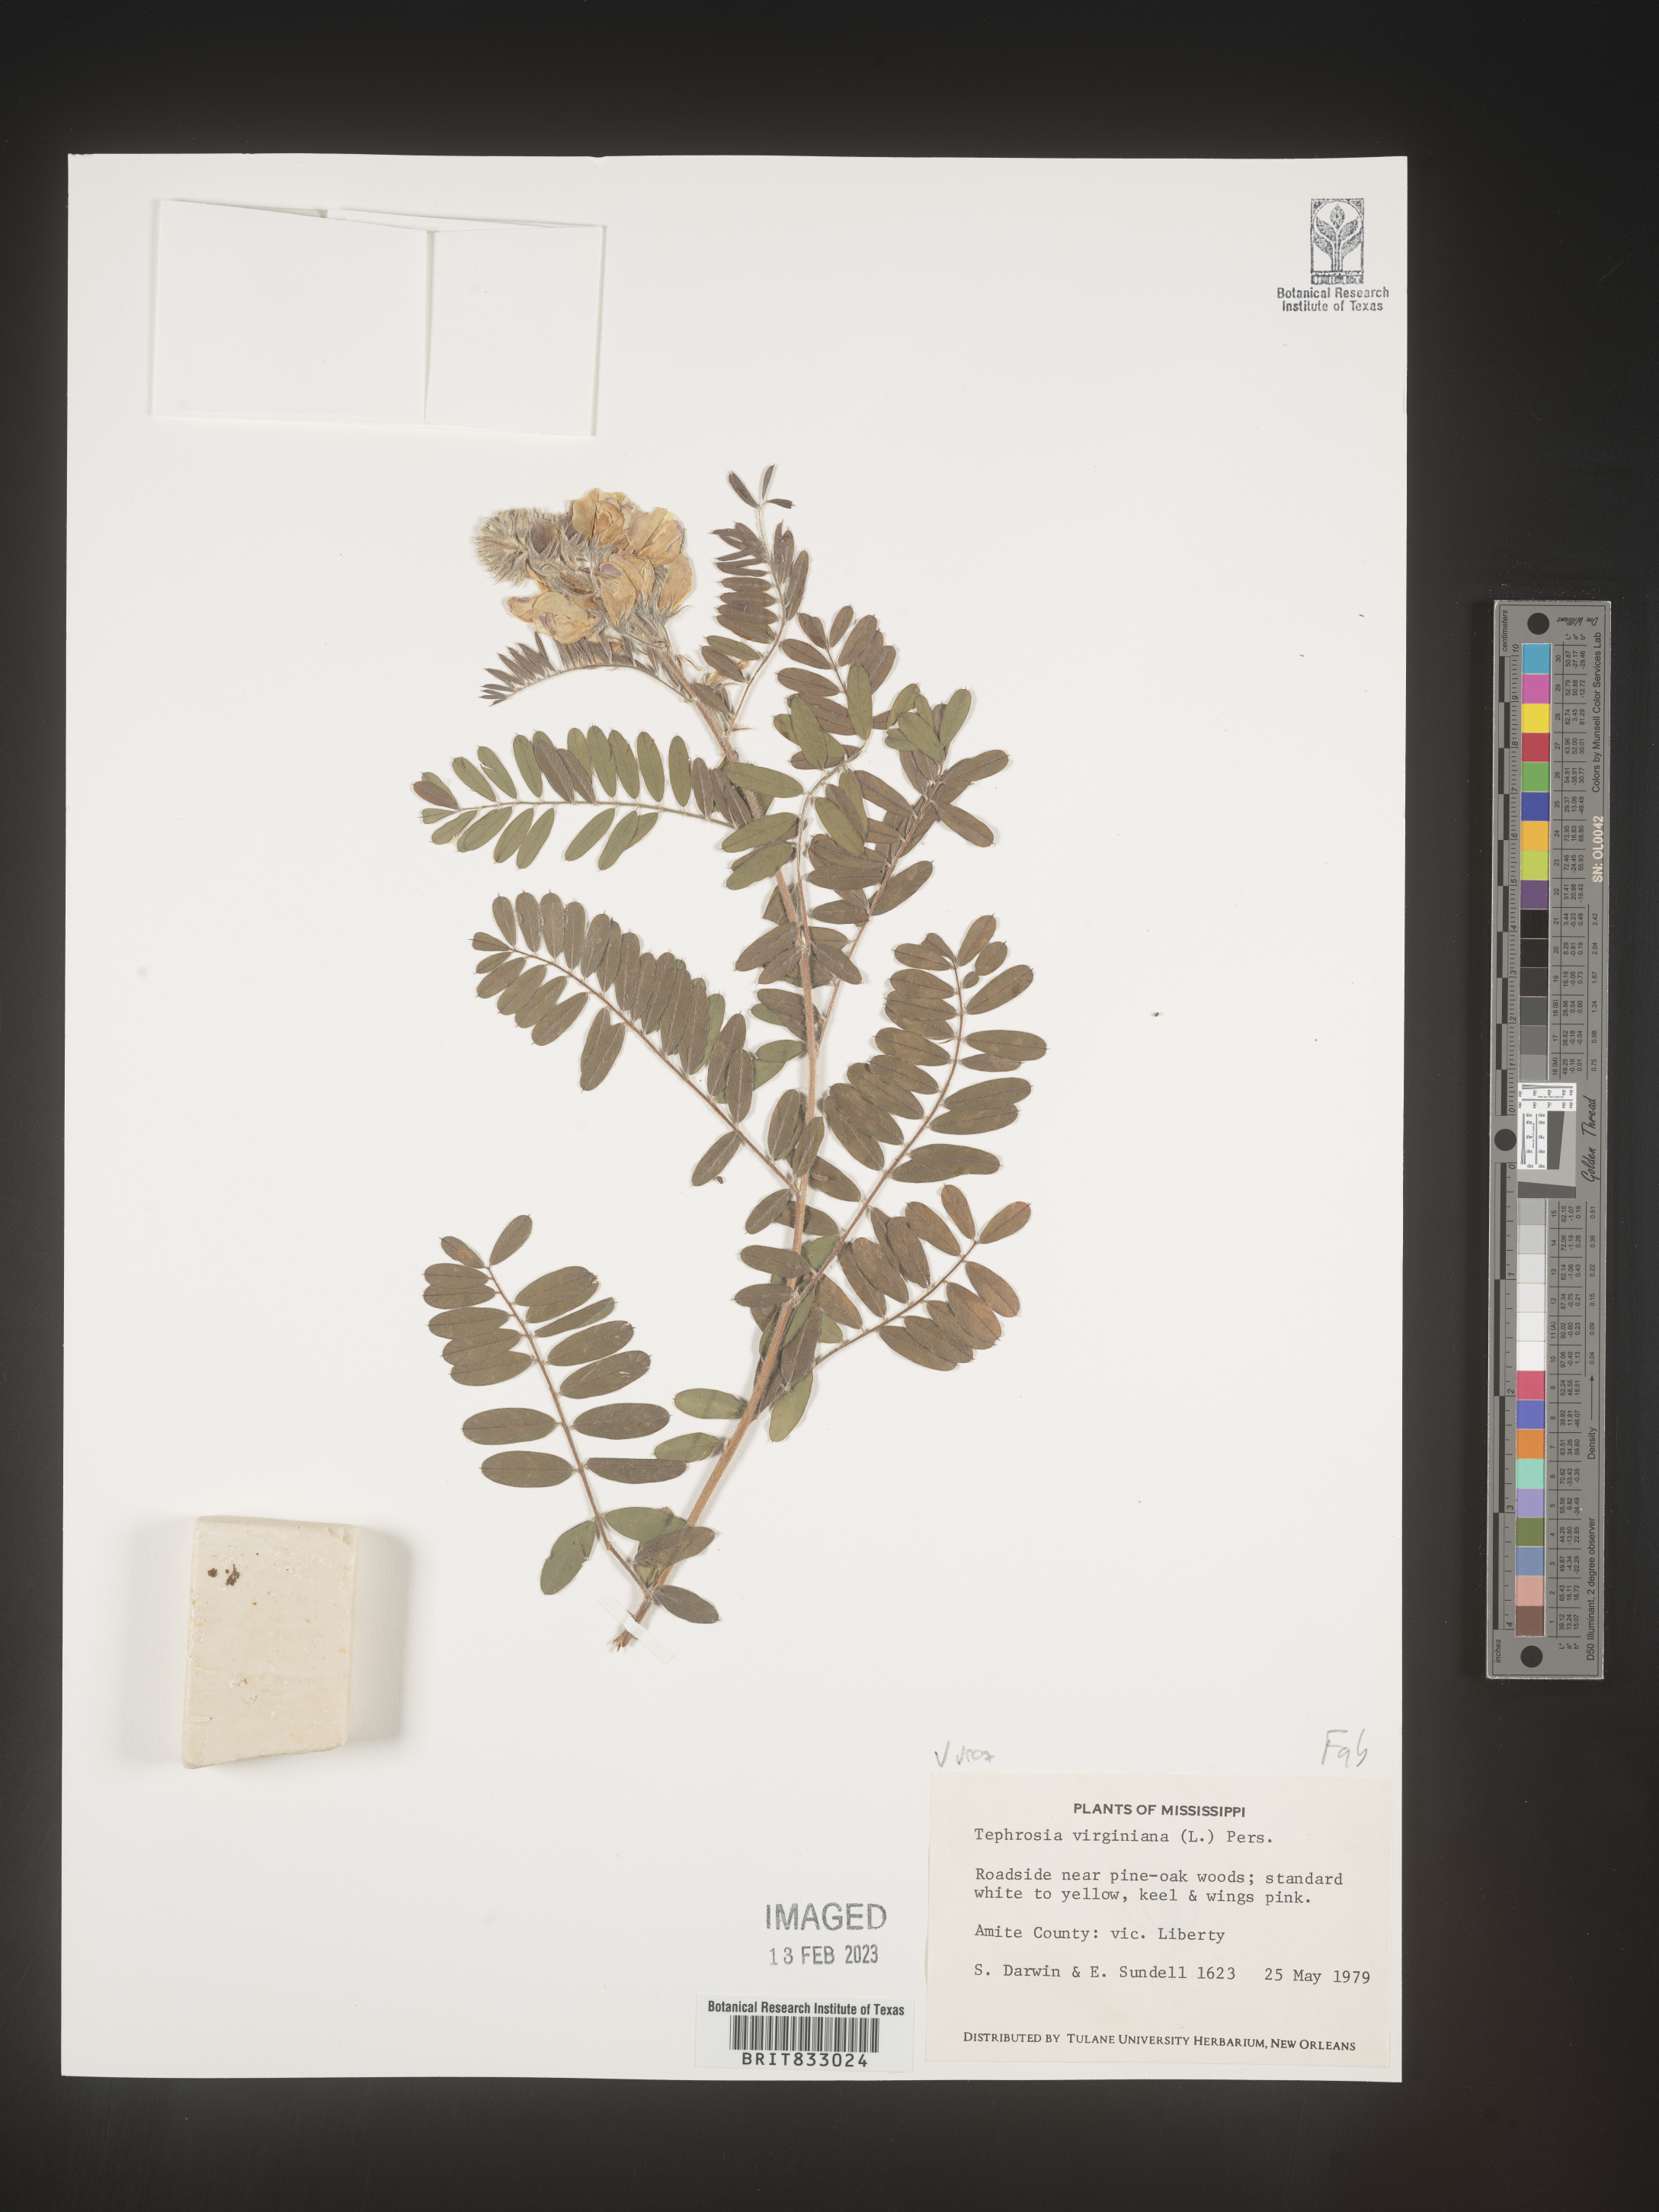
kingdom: Plantae
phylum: Tracheophyta
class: Magnoliopsida
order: Fabales
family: Fabaceae
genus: Tephrosia
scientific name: Tephrosia virginiana
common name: Rabbit-pea
